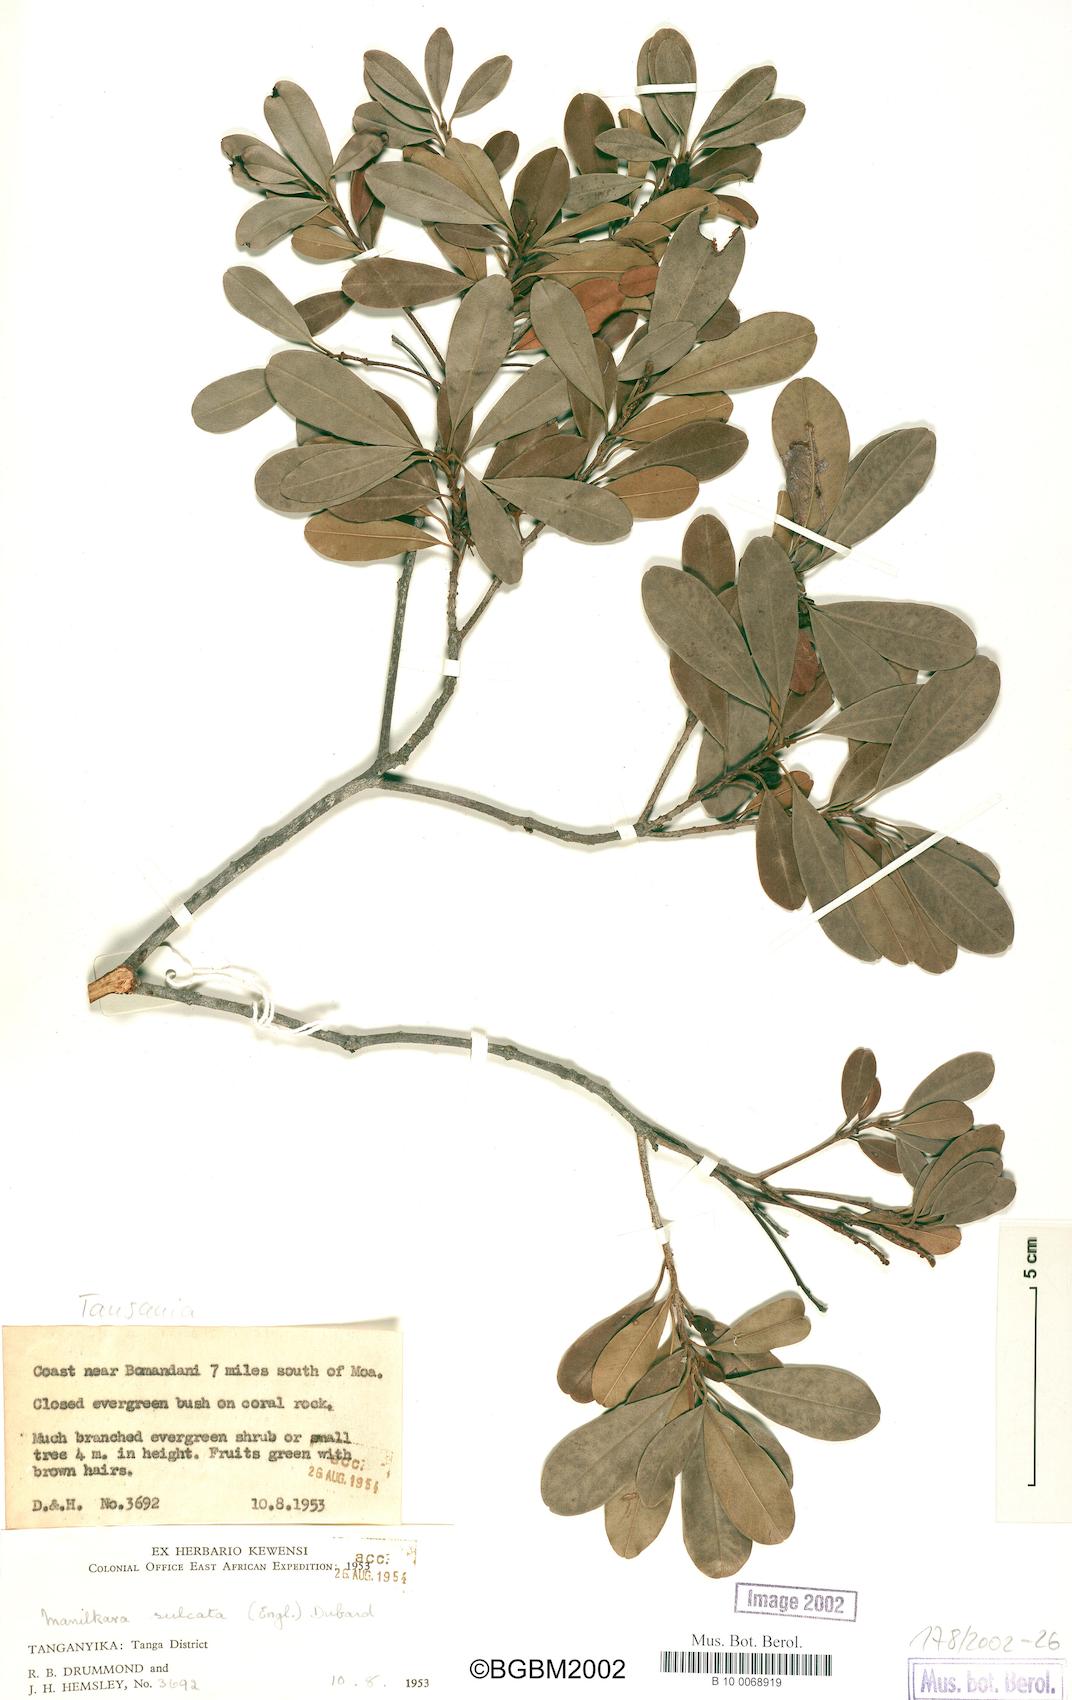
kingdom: Plantae
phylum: Tracheophyta
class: Magnoliopsida
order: Ericales
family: Sapotaceae
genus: Manilkara
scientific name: Manilkara sulcata
